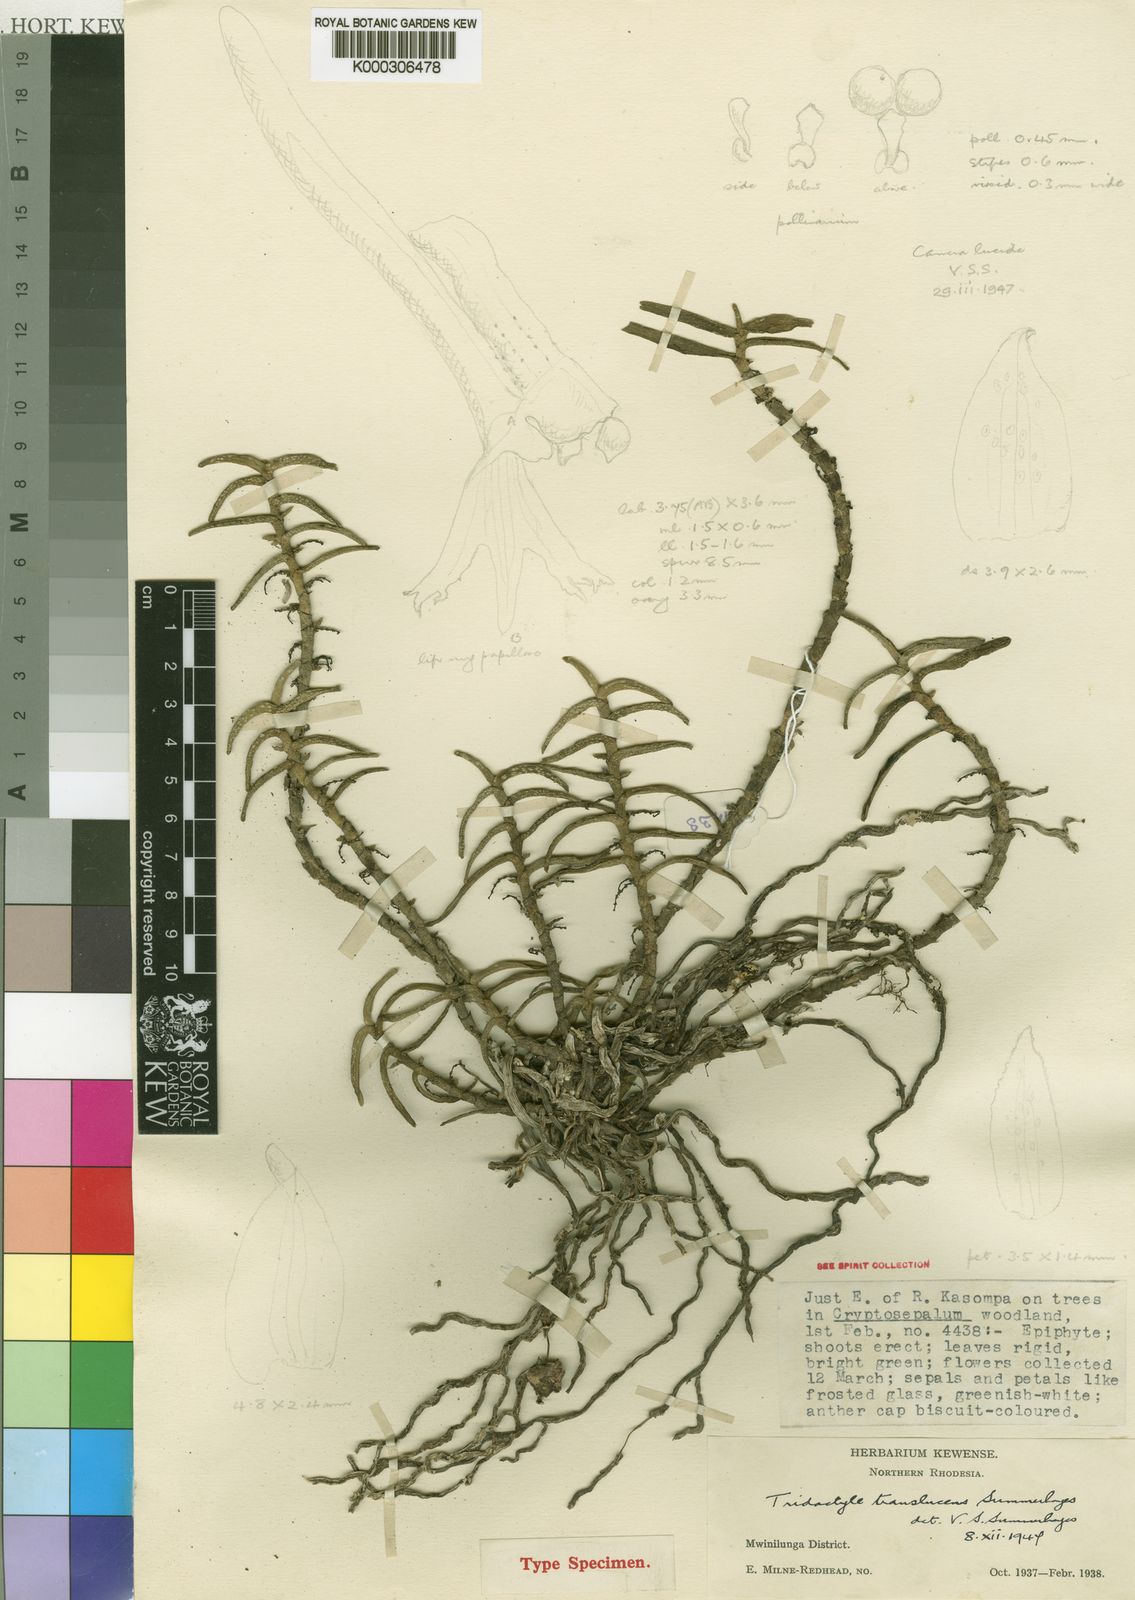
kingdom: Plantae
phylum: Tracheophyta
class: Liliopsida
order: Asparagales
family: Orchidaceae
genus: Tridactyle
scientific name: Tridactyle translucens
